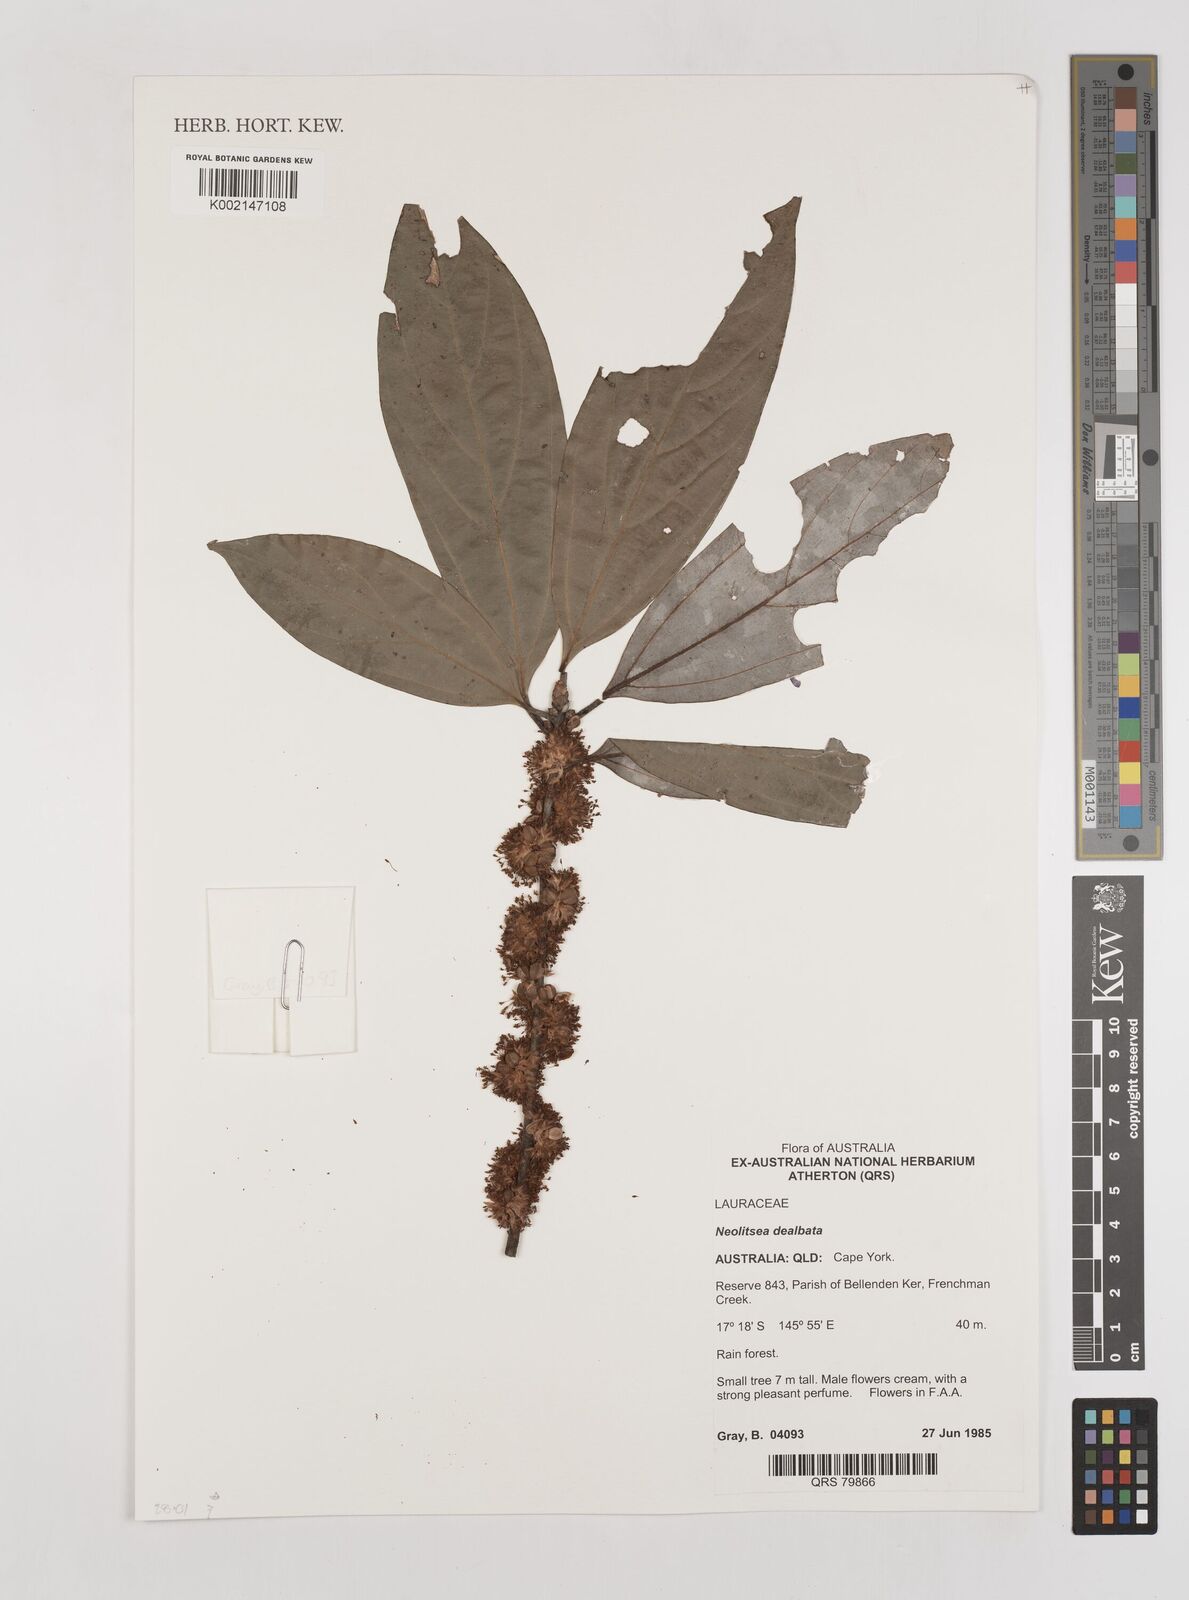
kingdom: Plantae
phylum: Tracheophyta
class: Magnoliopsida
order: Laurales
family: Lauraceae
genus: Neolitsea
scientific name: Neolitsea dealbata
